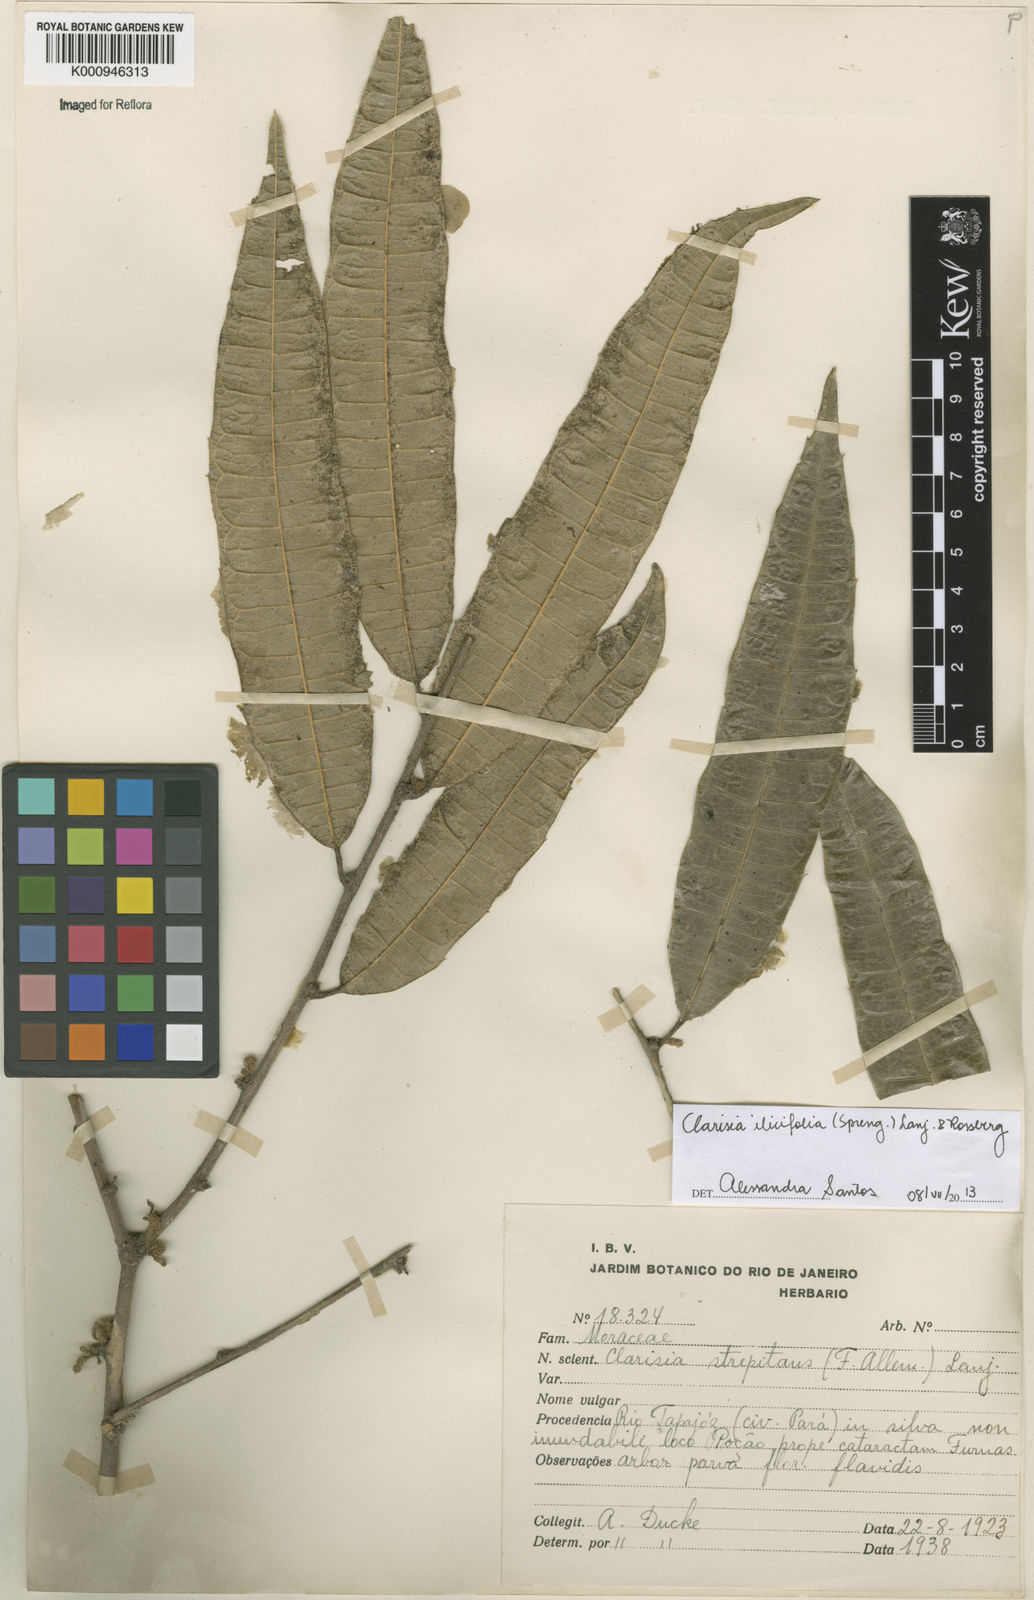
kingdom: Plantae
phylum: Tracheophyta
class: Magnoliopsida
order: Rosales
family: Moraceae
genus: Clarisia
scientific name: Clarisia ilicifolia
